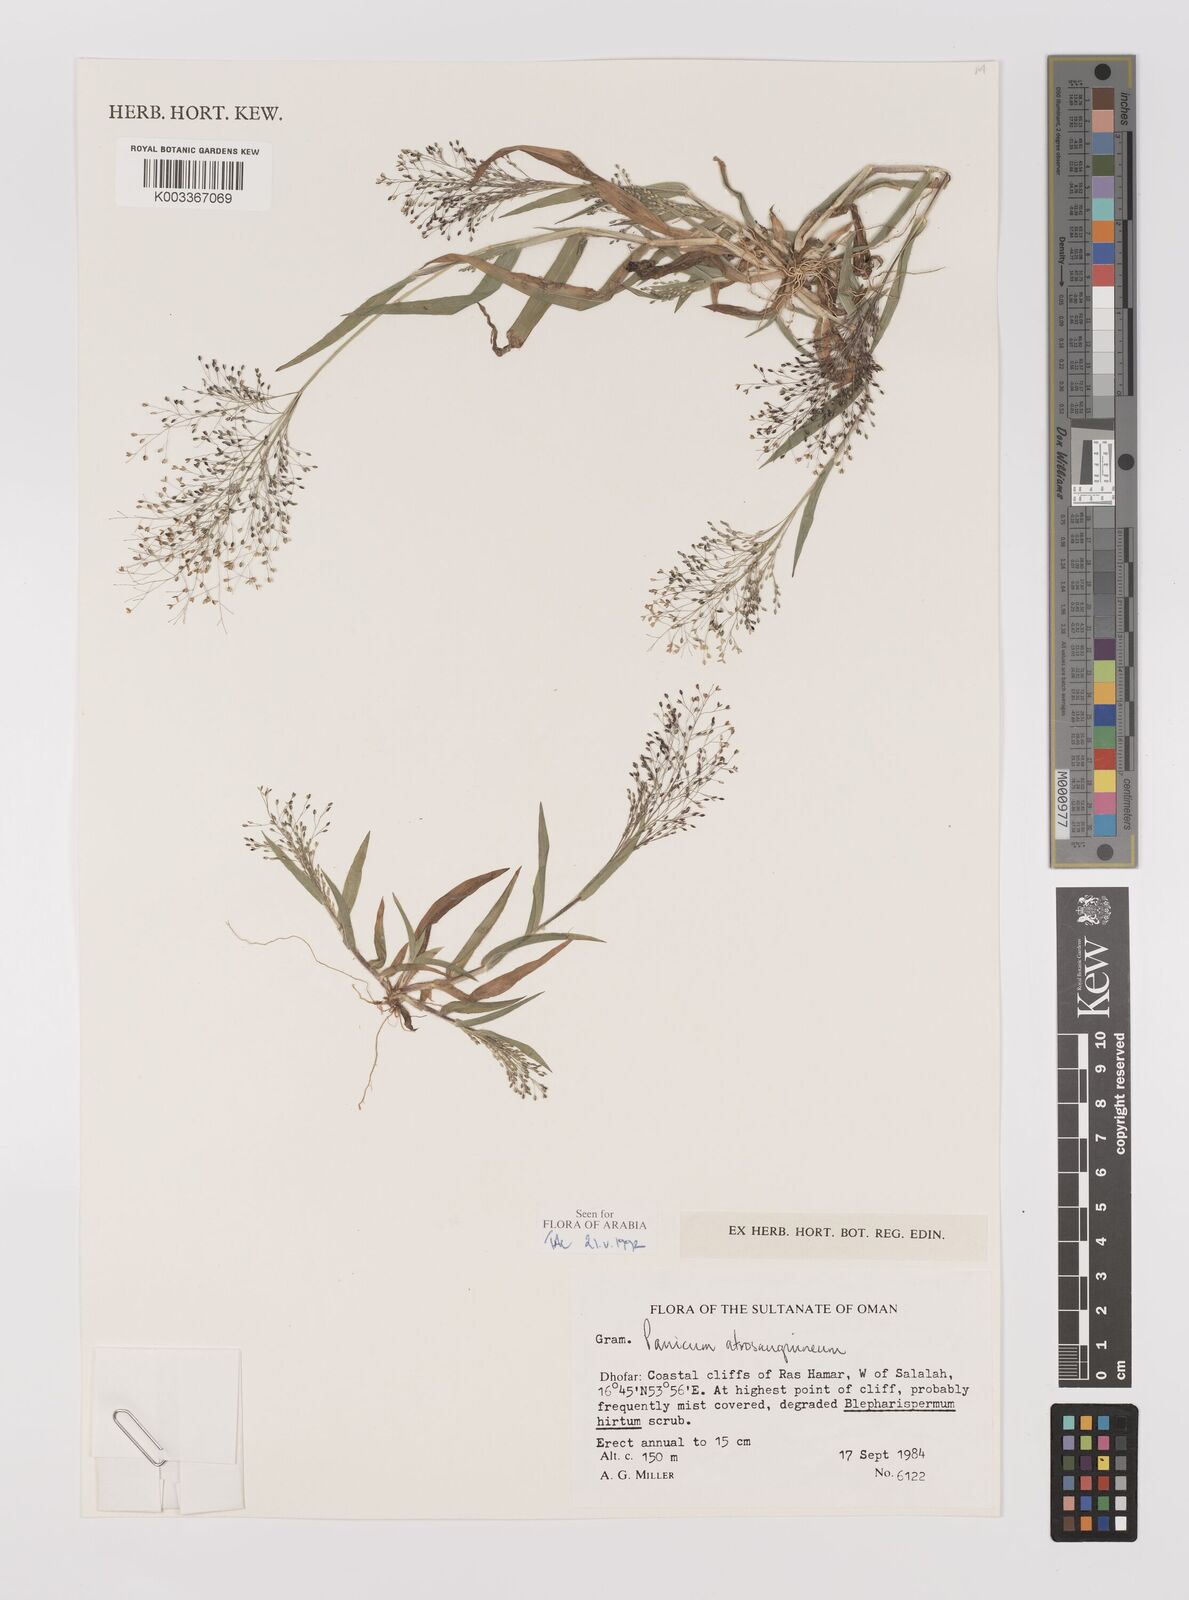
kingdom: Plantae
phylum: Tracheophyta
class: Liliopsida
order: Poales
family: Poaceae
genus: Panicum
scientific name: Panicum atrosanguineum
